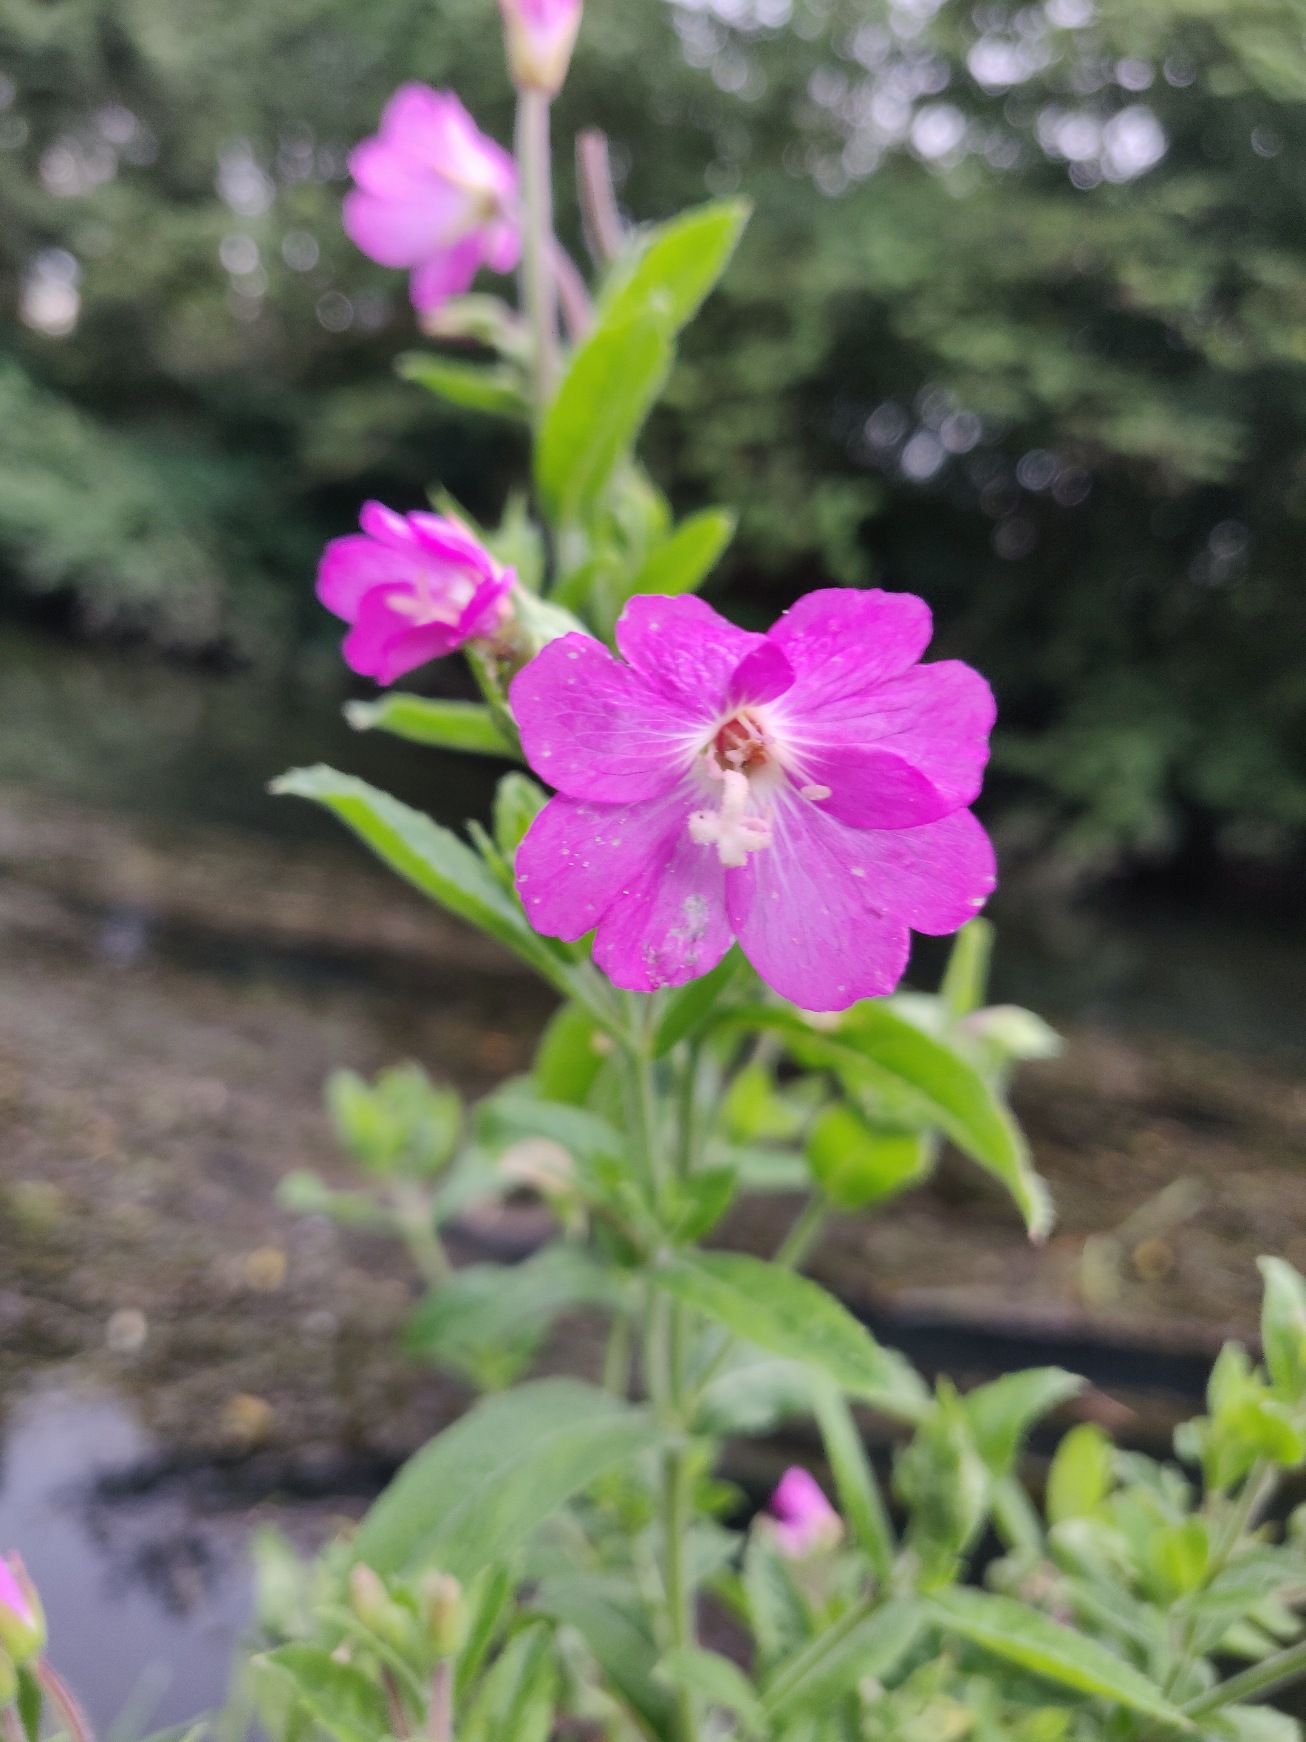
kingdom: Plantae
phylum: Tracheophyta
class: Magnoliopsida
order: Myrtales
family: Onagraceae
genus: Epilobium
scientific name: Epilobium hirsutum
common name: Lådden dueurt
